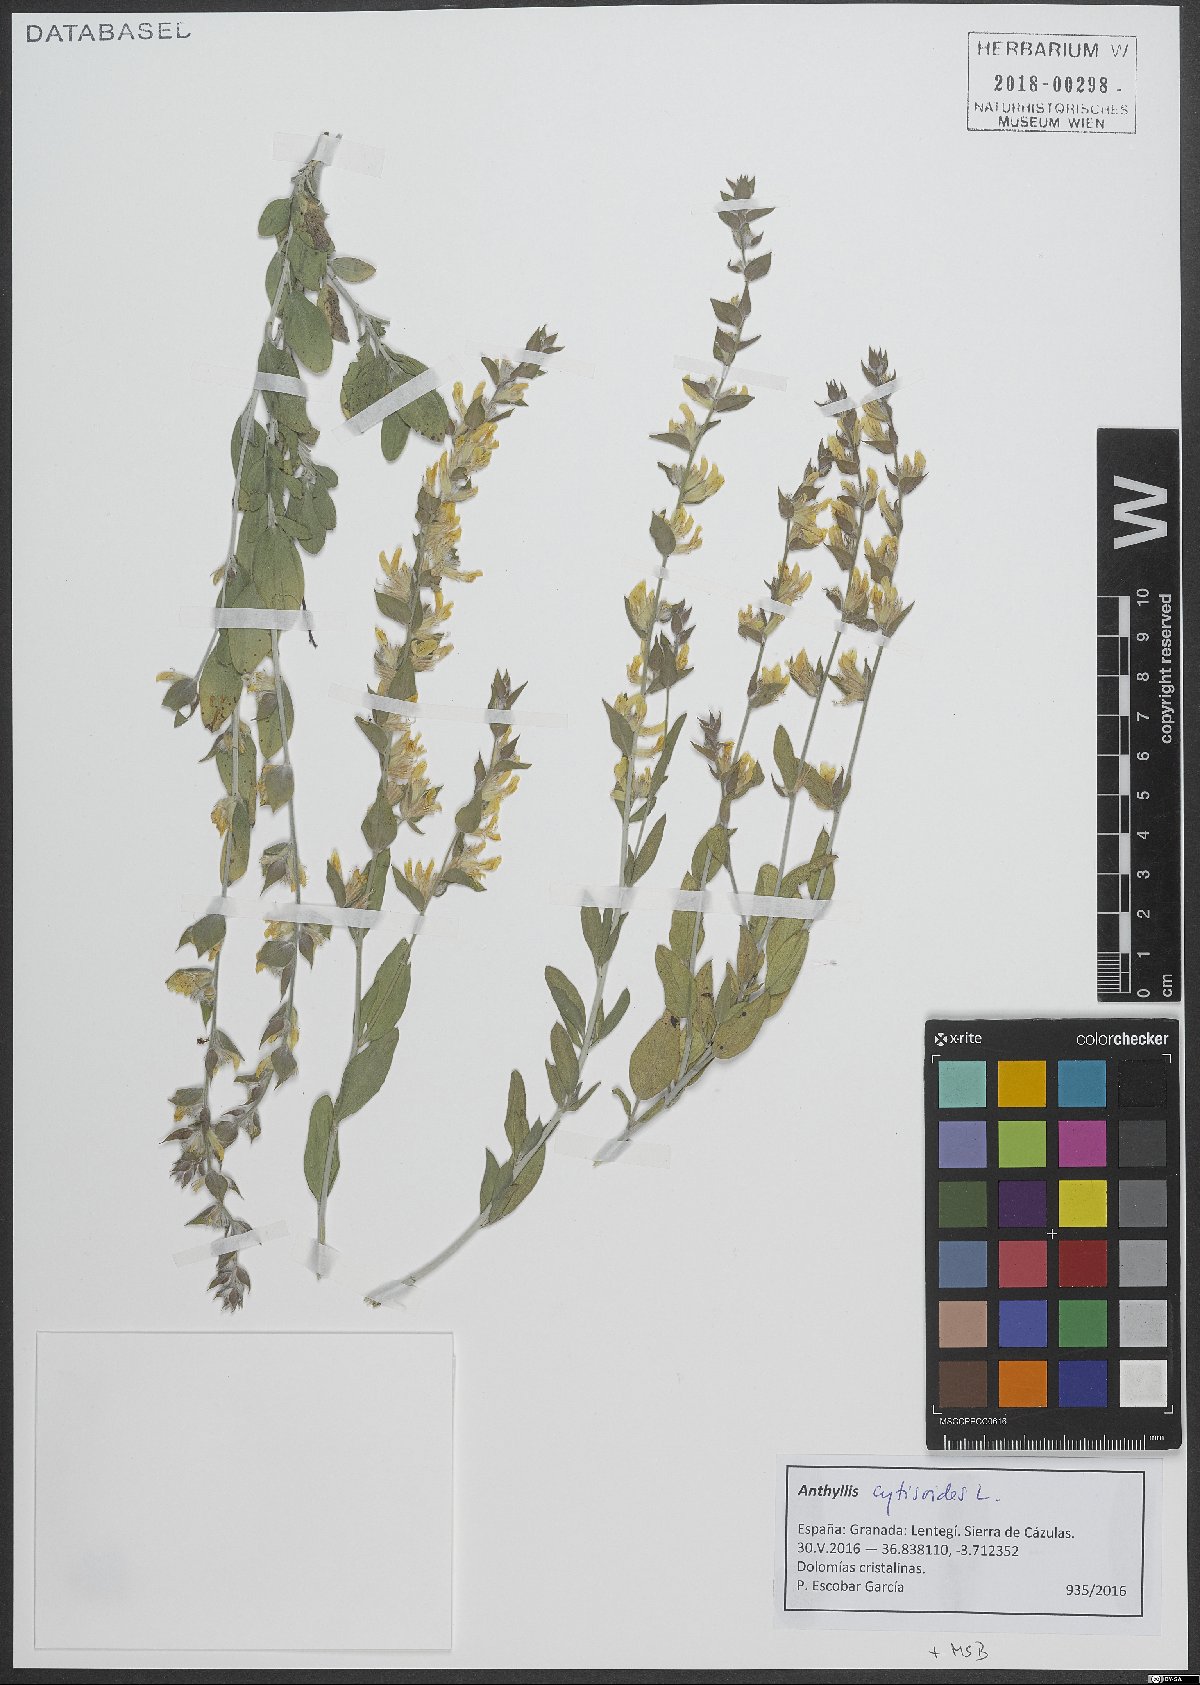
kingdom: Plantae
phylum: Tracheophyta
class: Magnoliopsida
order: Fabales
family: Fabaceae
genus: Anthyllis
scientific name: Anthyllis cytisoides
